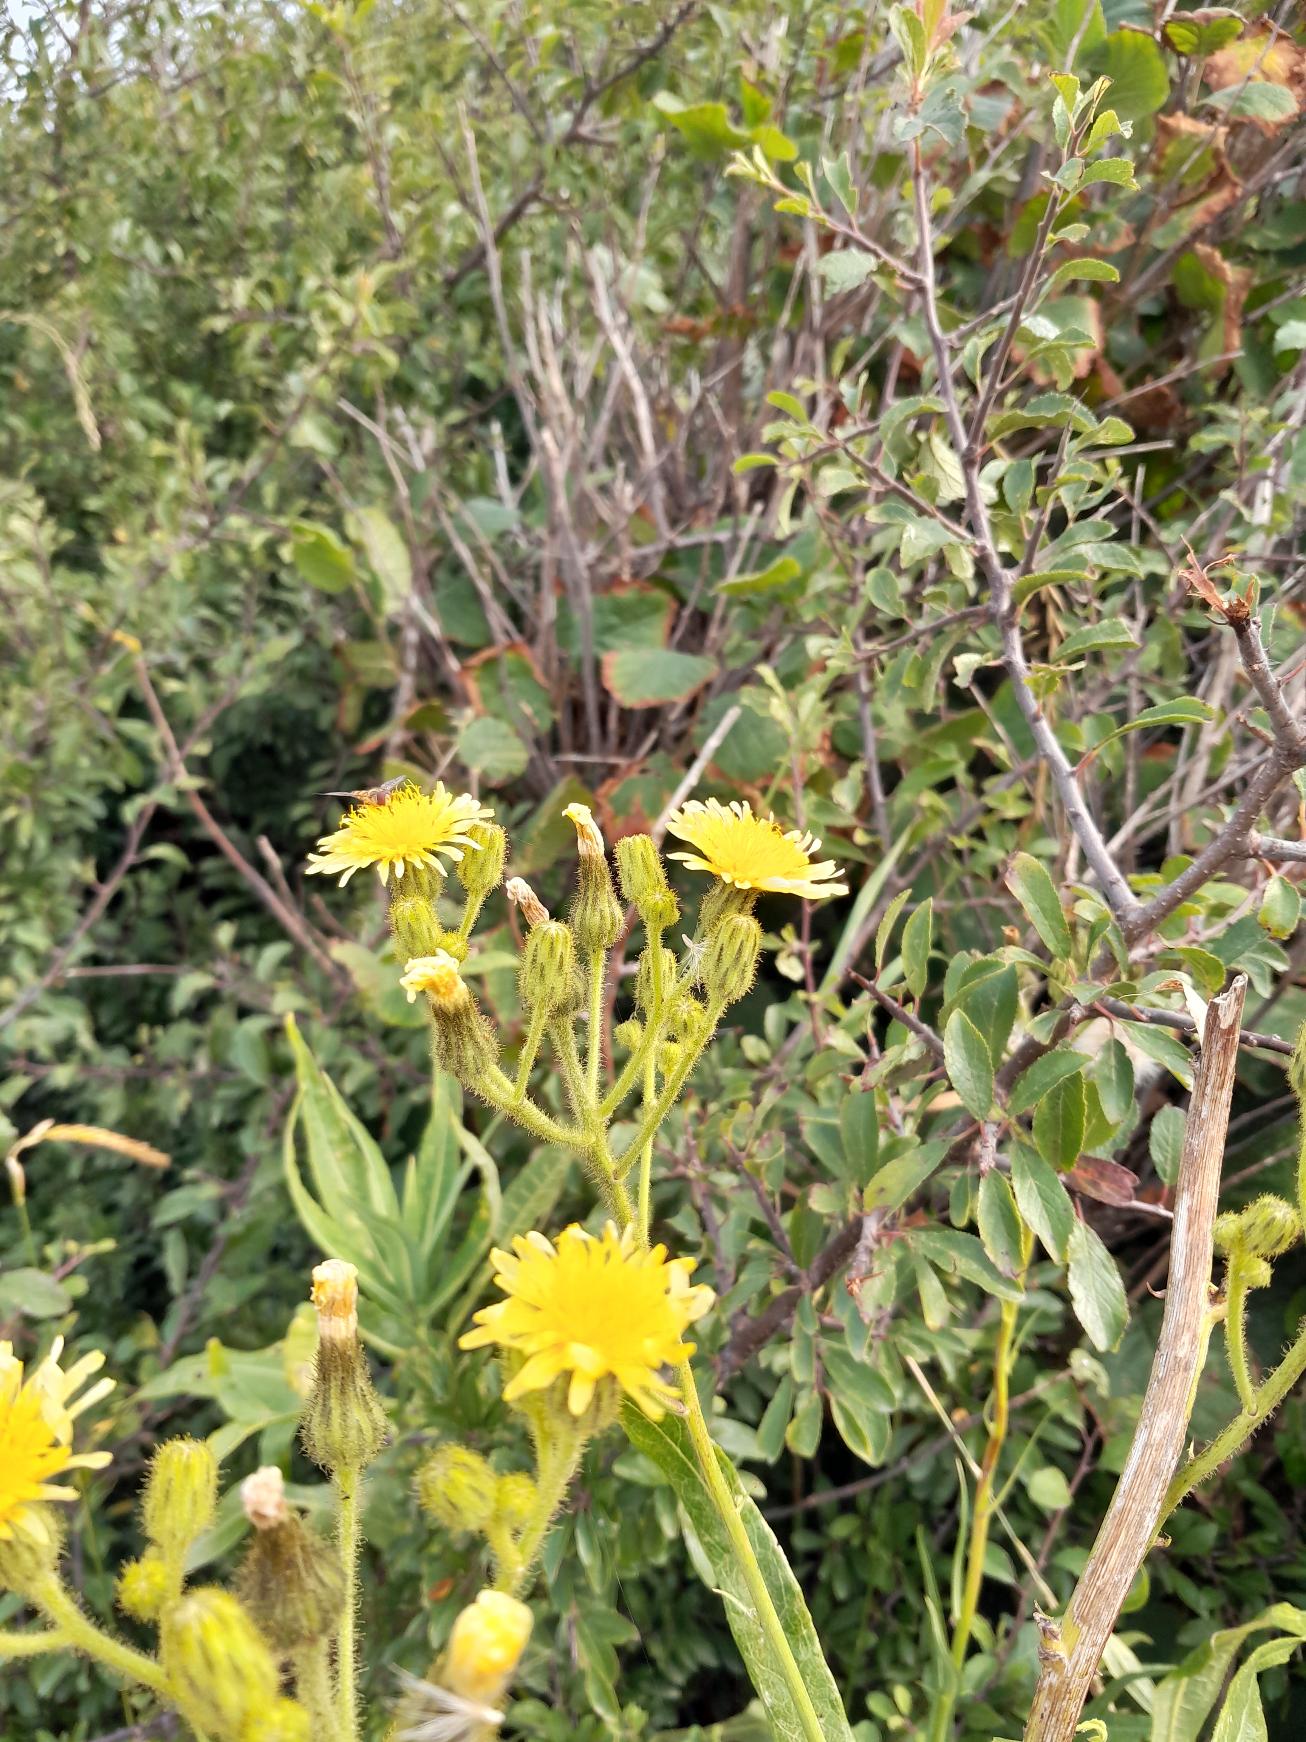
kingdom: Plantae
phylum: Tracheophyta
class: Magnoliopsida
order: Asterales
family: Asteraceae
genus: Sonchus
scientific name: Sonchus palustris
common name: Kær-svinemælk
